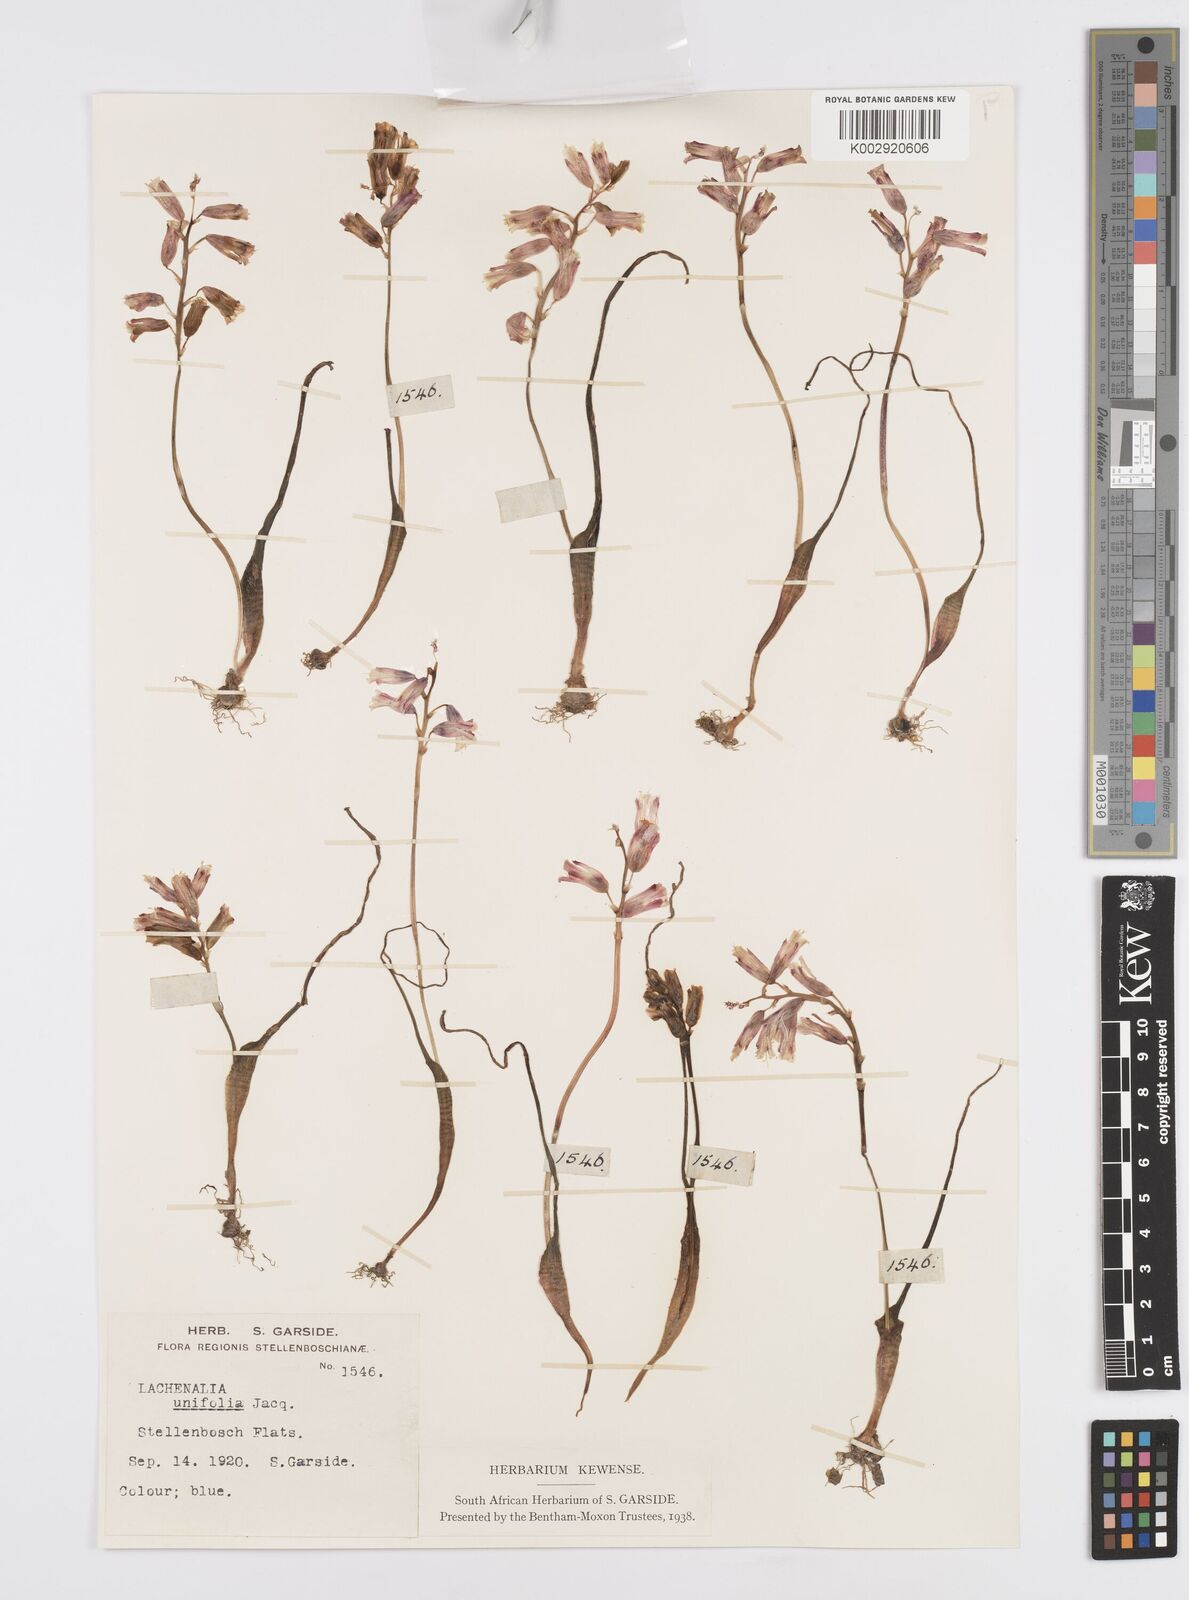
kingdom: Plantae
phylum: Tracheophyta
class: Liliopsida
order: Asparagales
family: Asparagaceae
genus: Lachenalia
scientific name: Lachenalia unifolia
